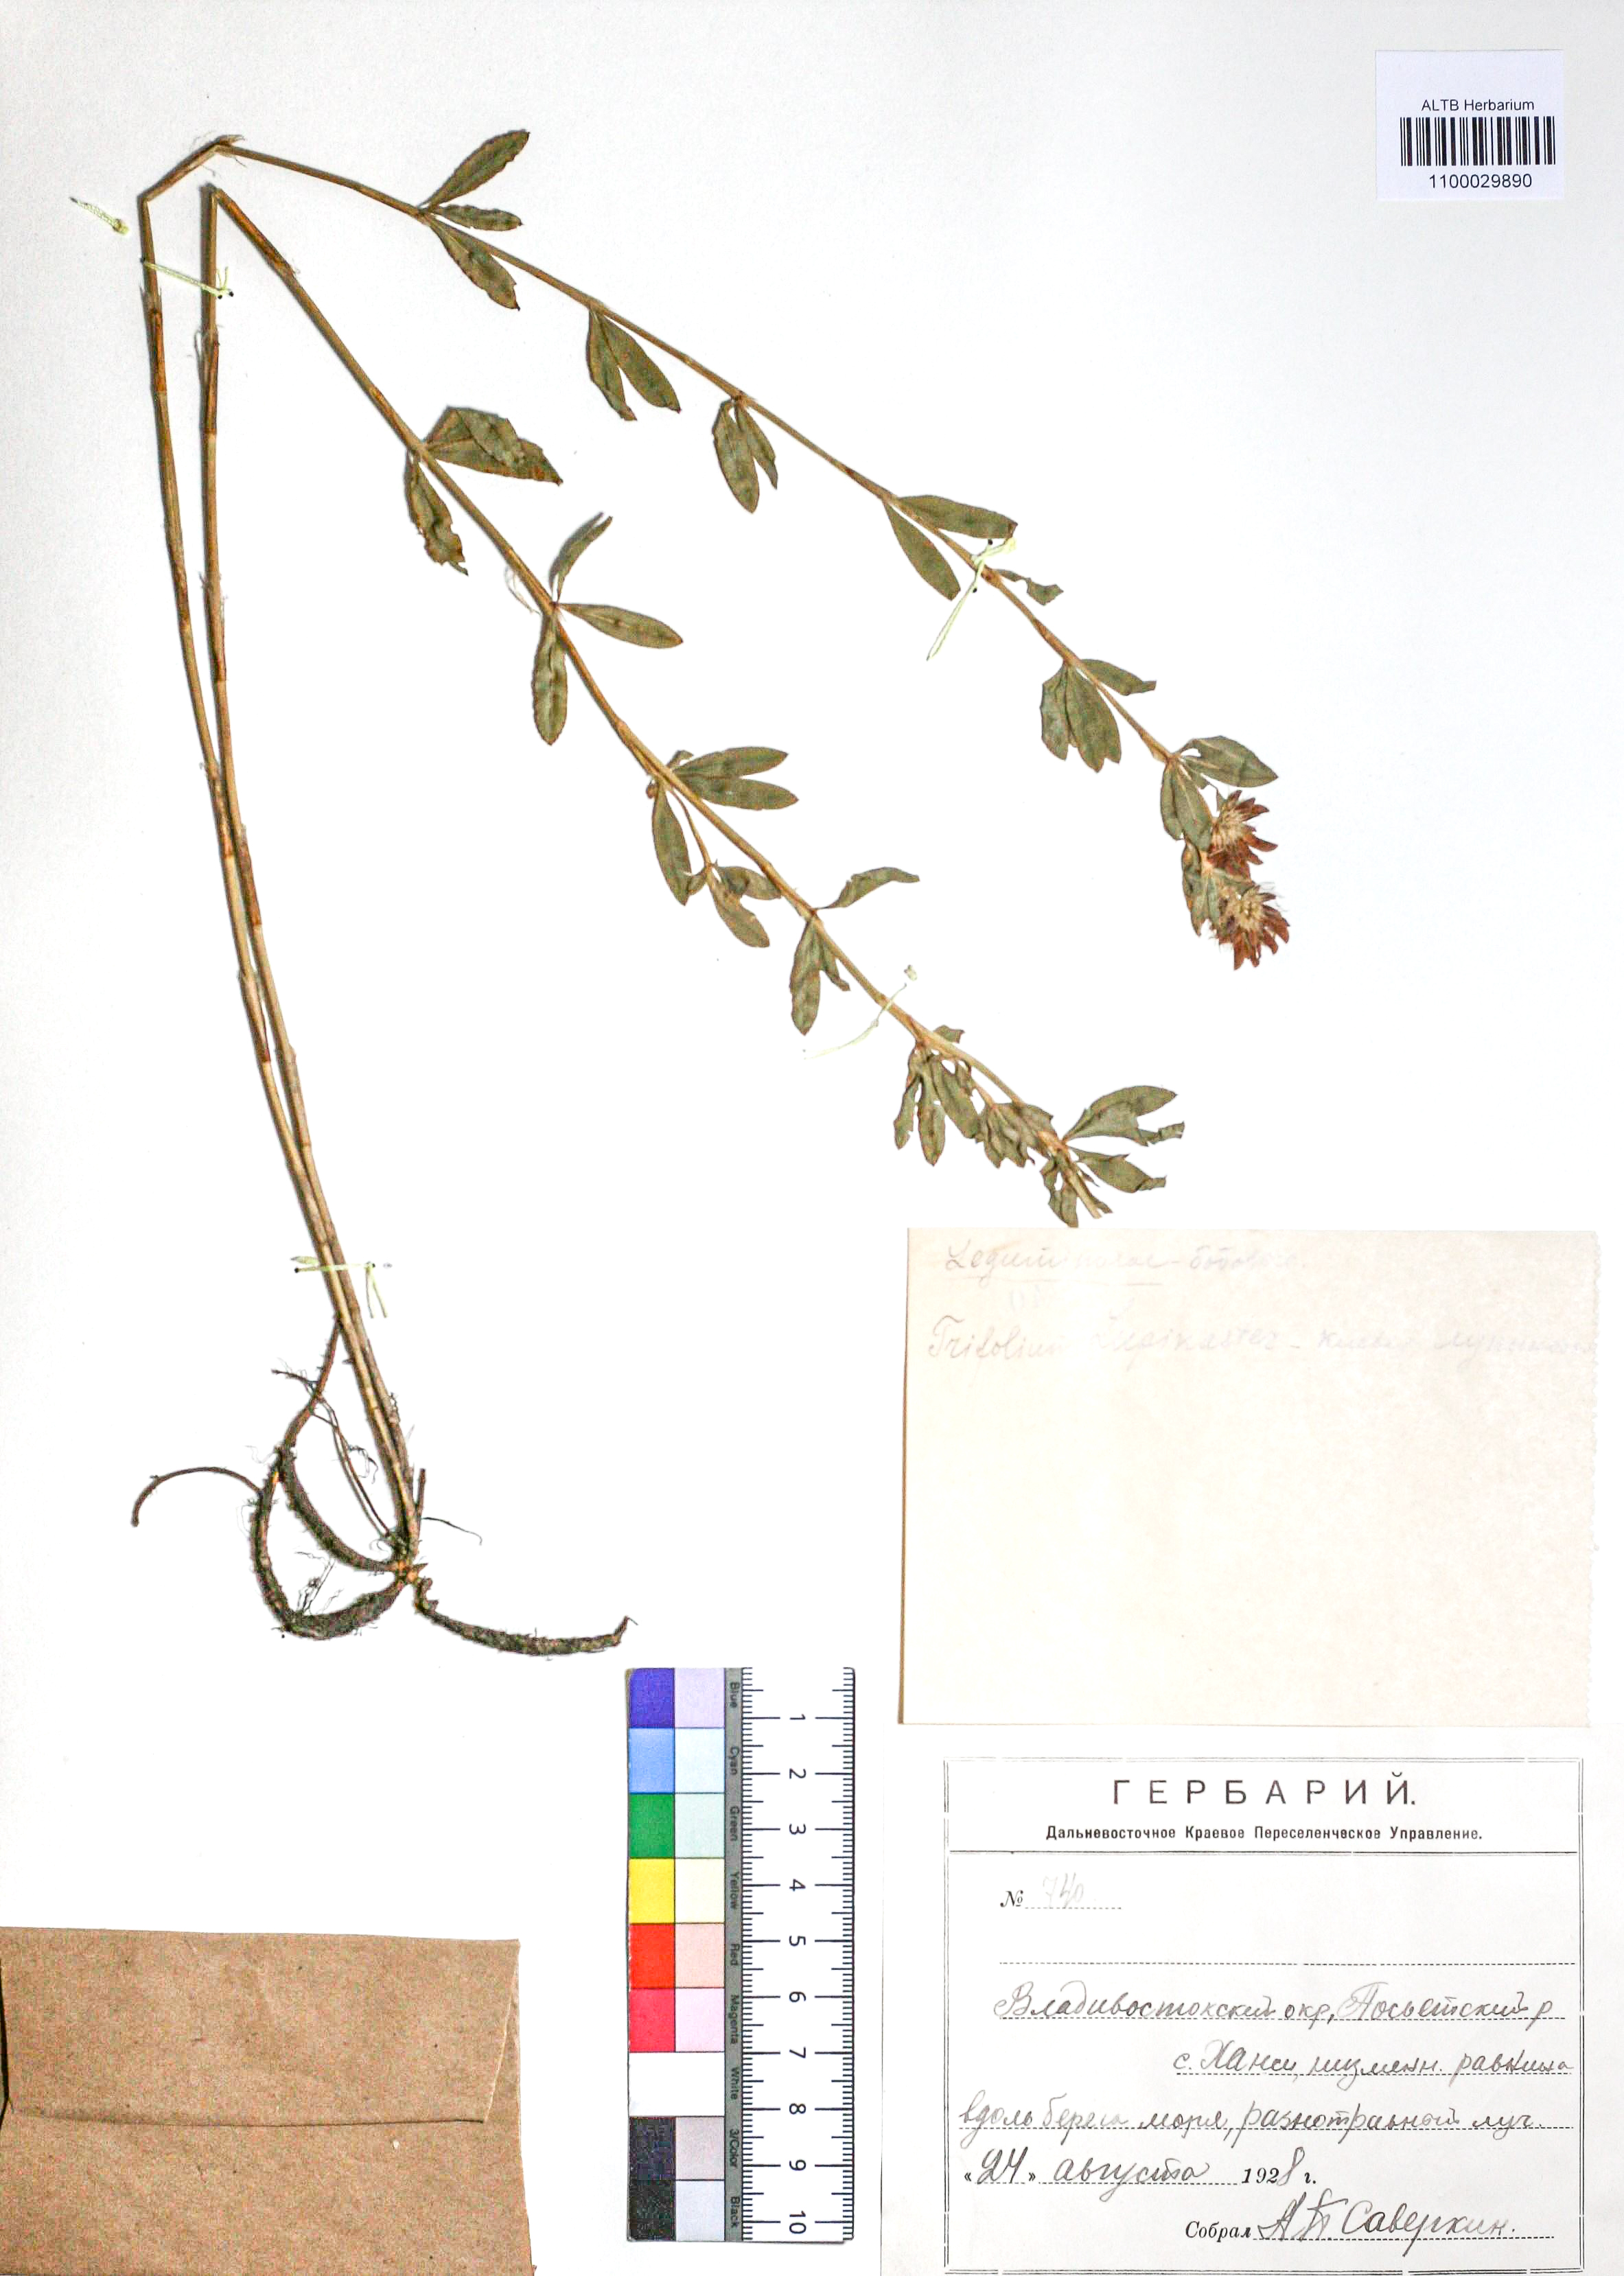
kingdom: Plantae
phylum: Tracheophyta
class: Magnoliopsida
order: Fabales
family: Fabaceae
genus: Trifolium
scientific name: Trifolium lupinaster
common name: Lupine clover
